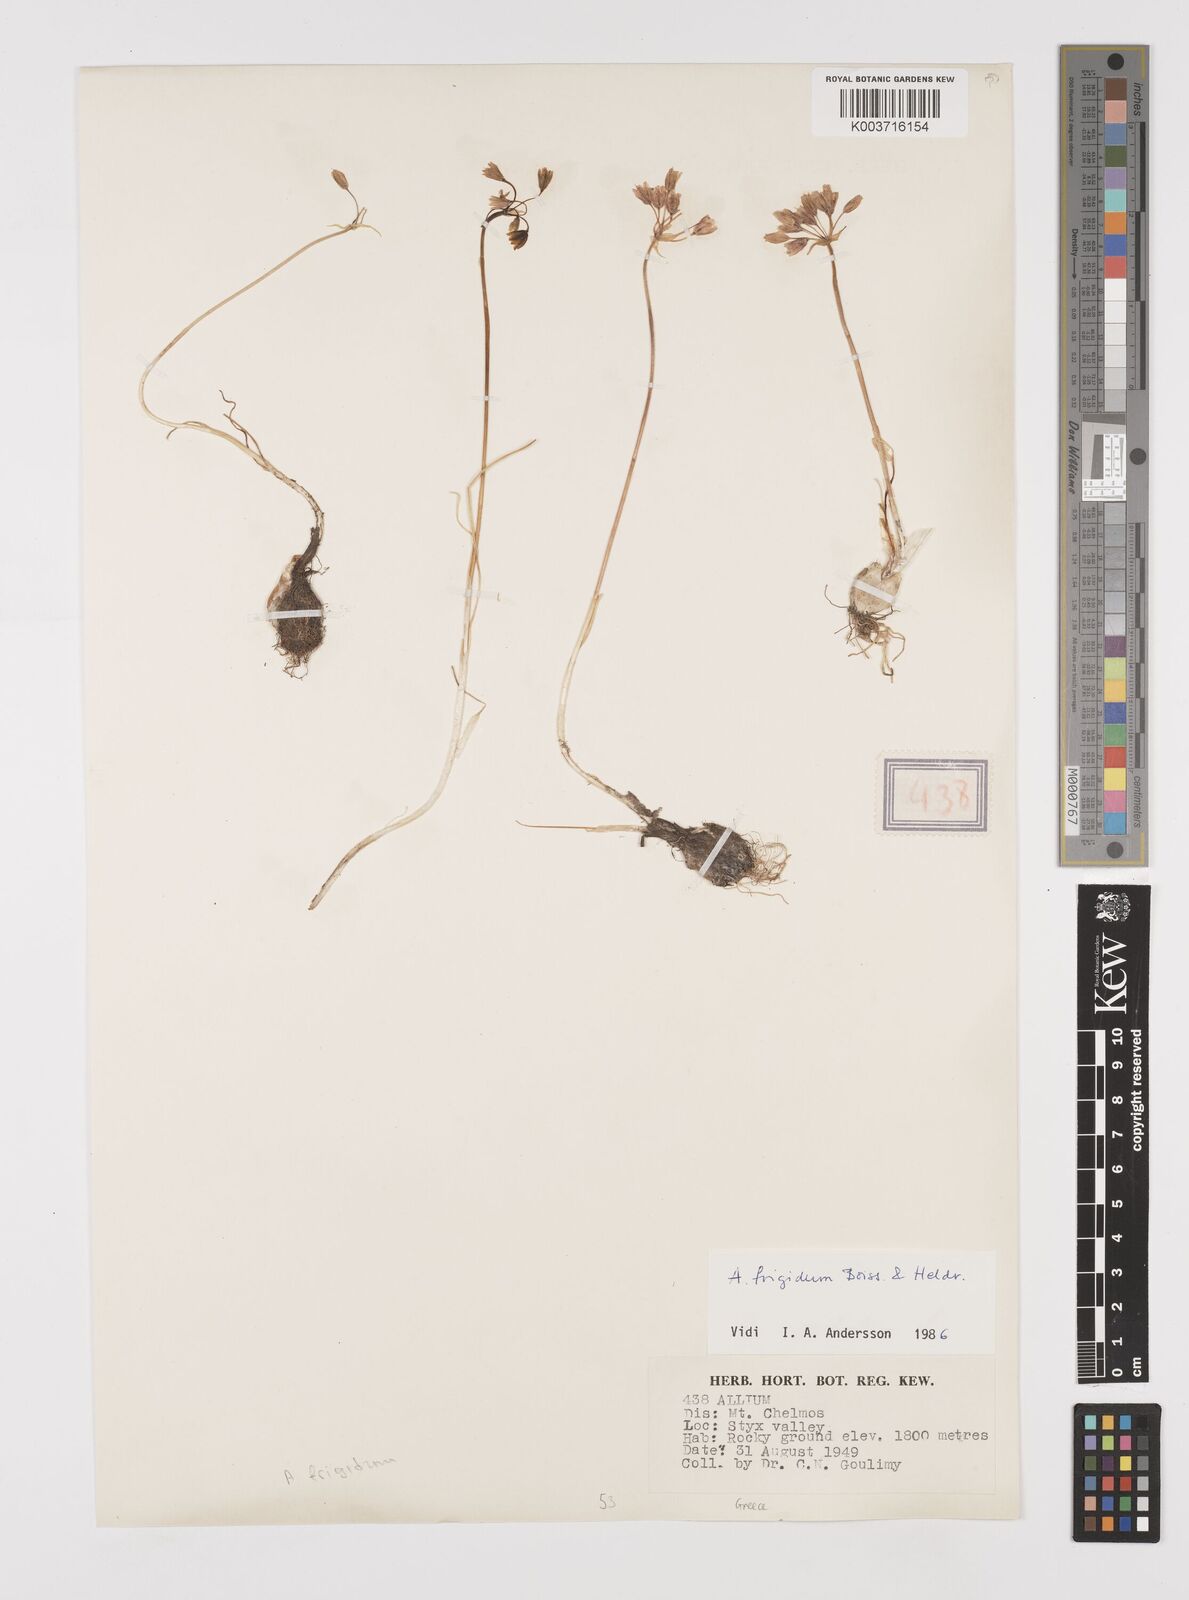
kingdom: Plantae
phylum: Tracheophyta
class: Liliopsida
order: Asparagales
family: Amaryllidaceae
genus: Allium
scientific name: Allium frigidum
